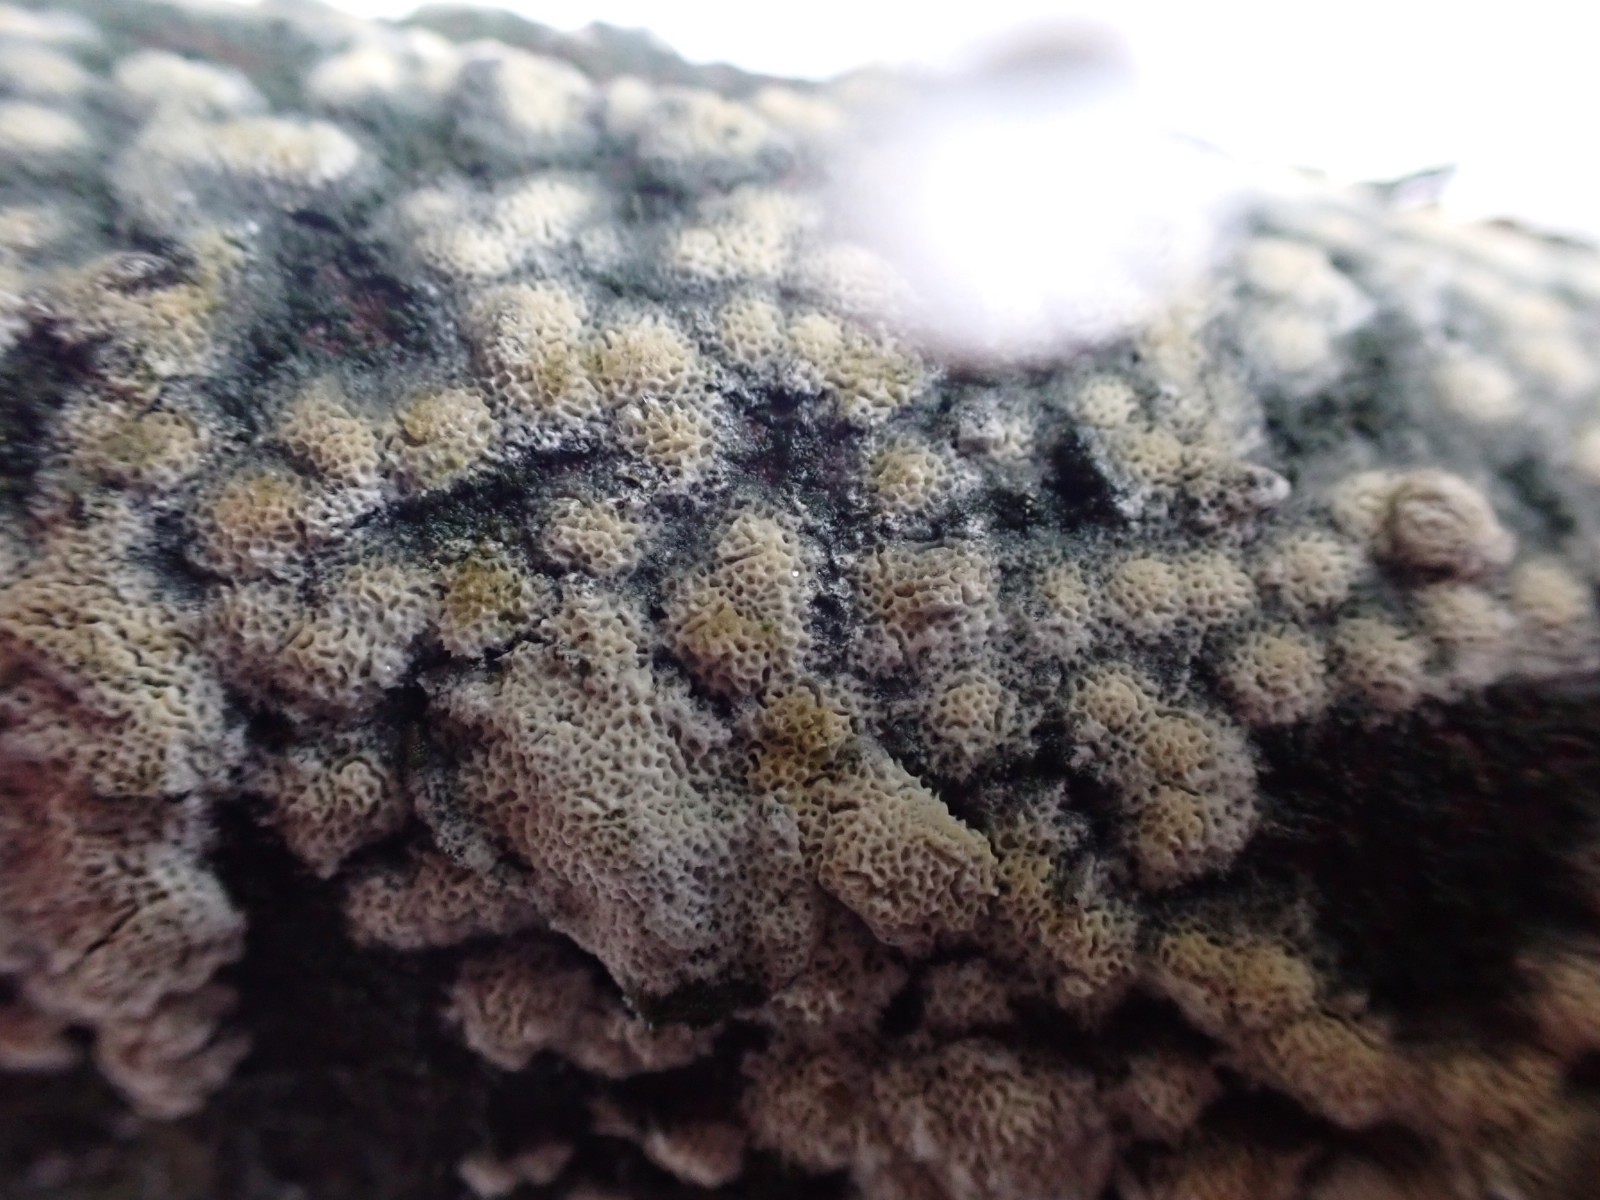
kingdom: Fungi
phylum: Basidiomycota
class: Agaricomycetes
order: Polyporales
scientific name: Polyporales
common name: poresvampordenen
